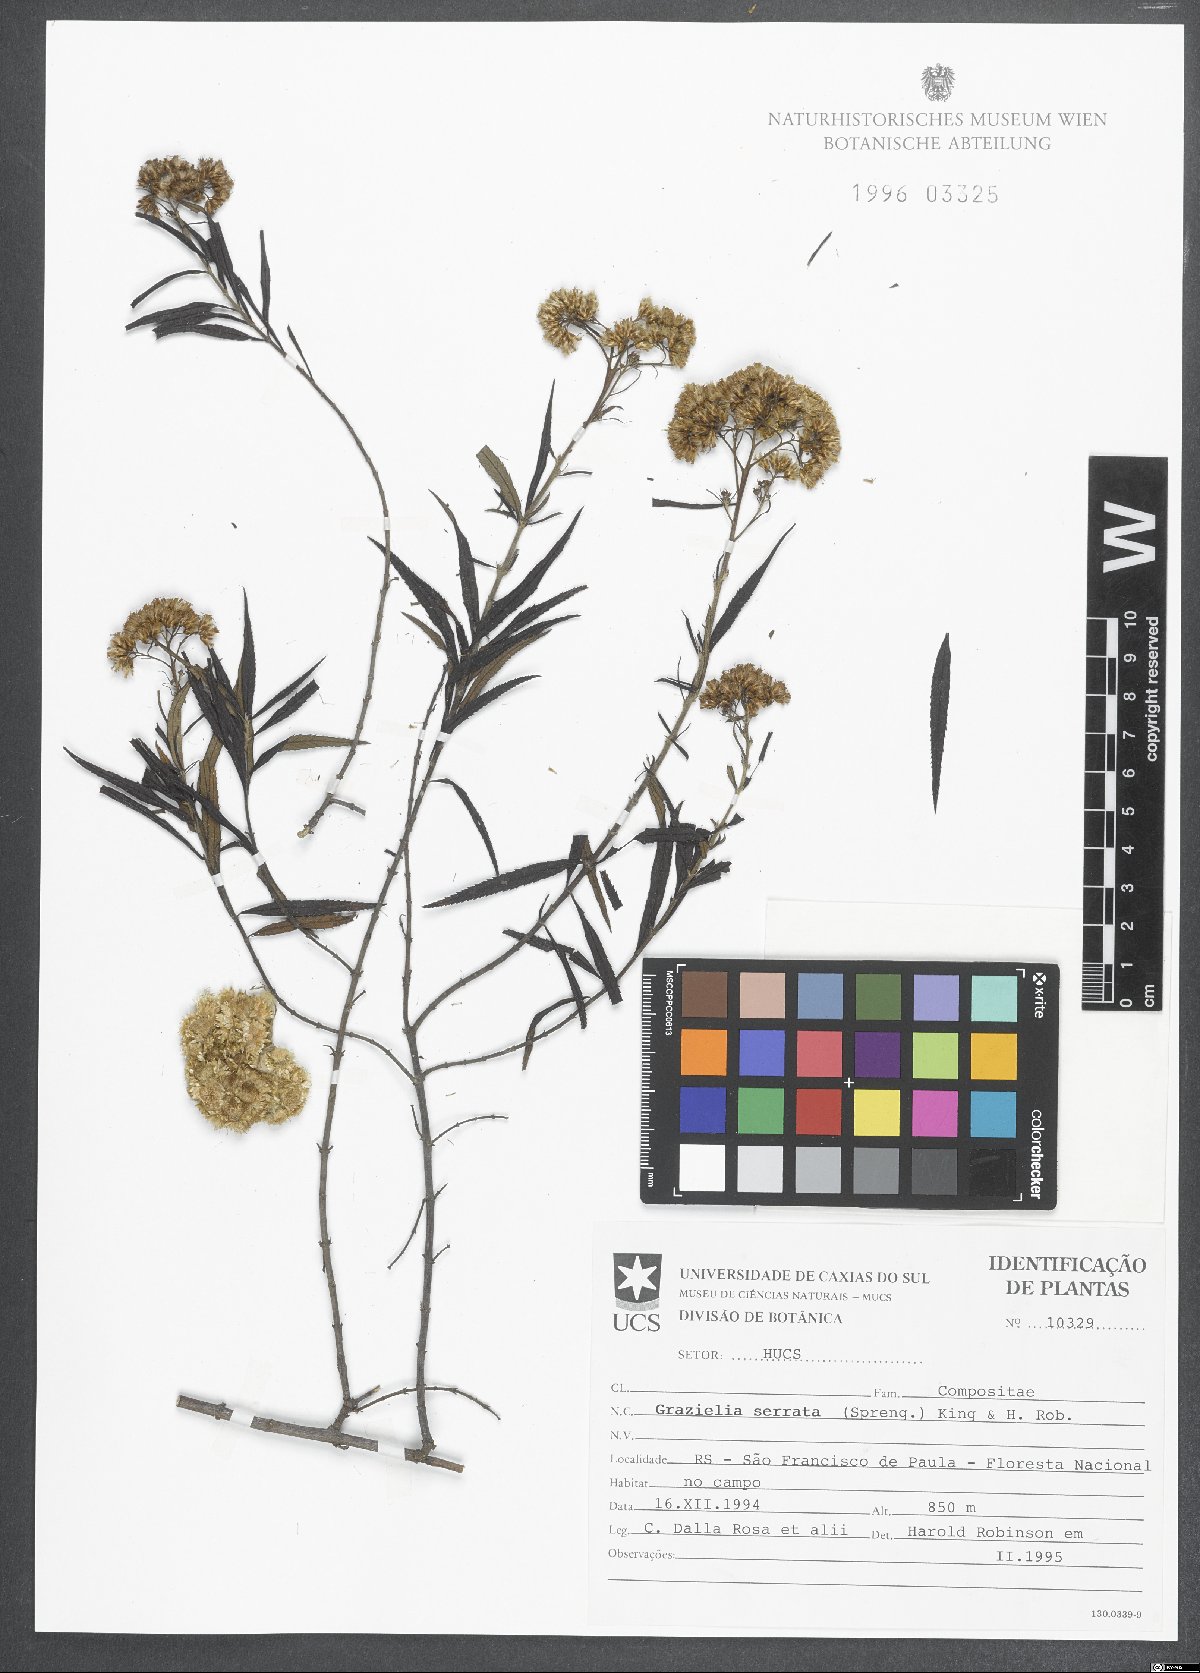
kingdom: Plantae
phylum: Tracheophyta
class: Magnoliopsida
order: Asterales
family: Asteraceae
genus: Grazielia
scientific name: Grazielia serrata
